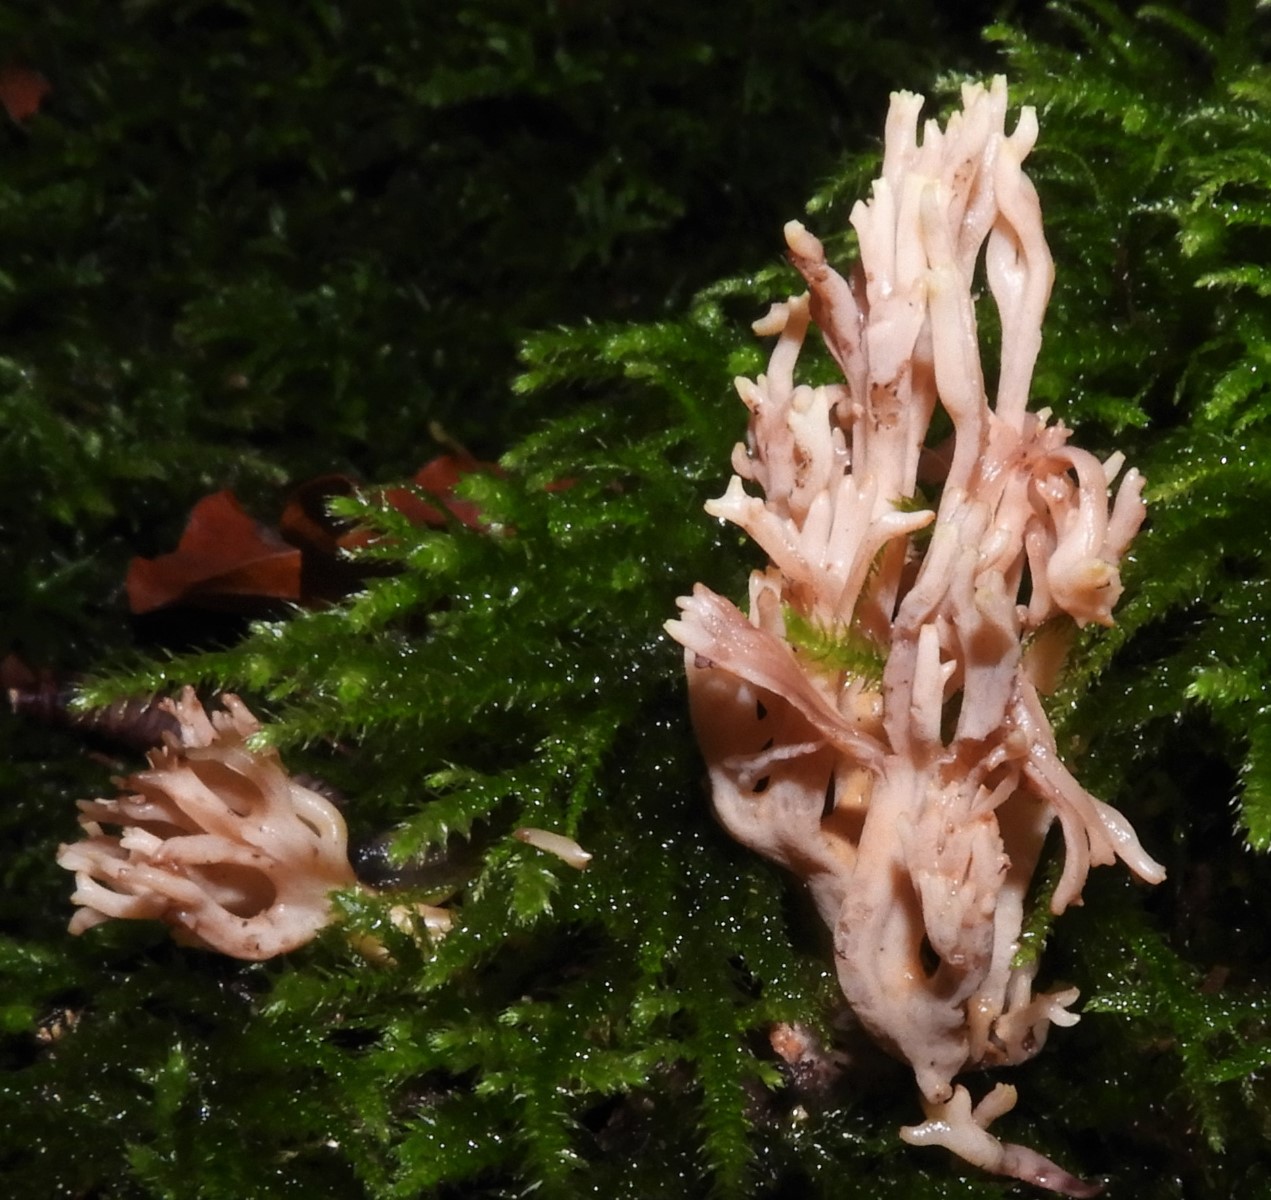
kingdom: Fungi
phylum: Basidiomycota
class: Agaricomycetes
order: Gomphales
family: Gomphaceae
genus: Ramaria
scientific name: Ramaria stricta
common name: rank koralsvamp
